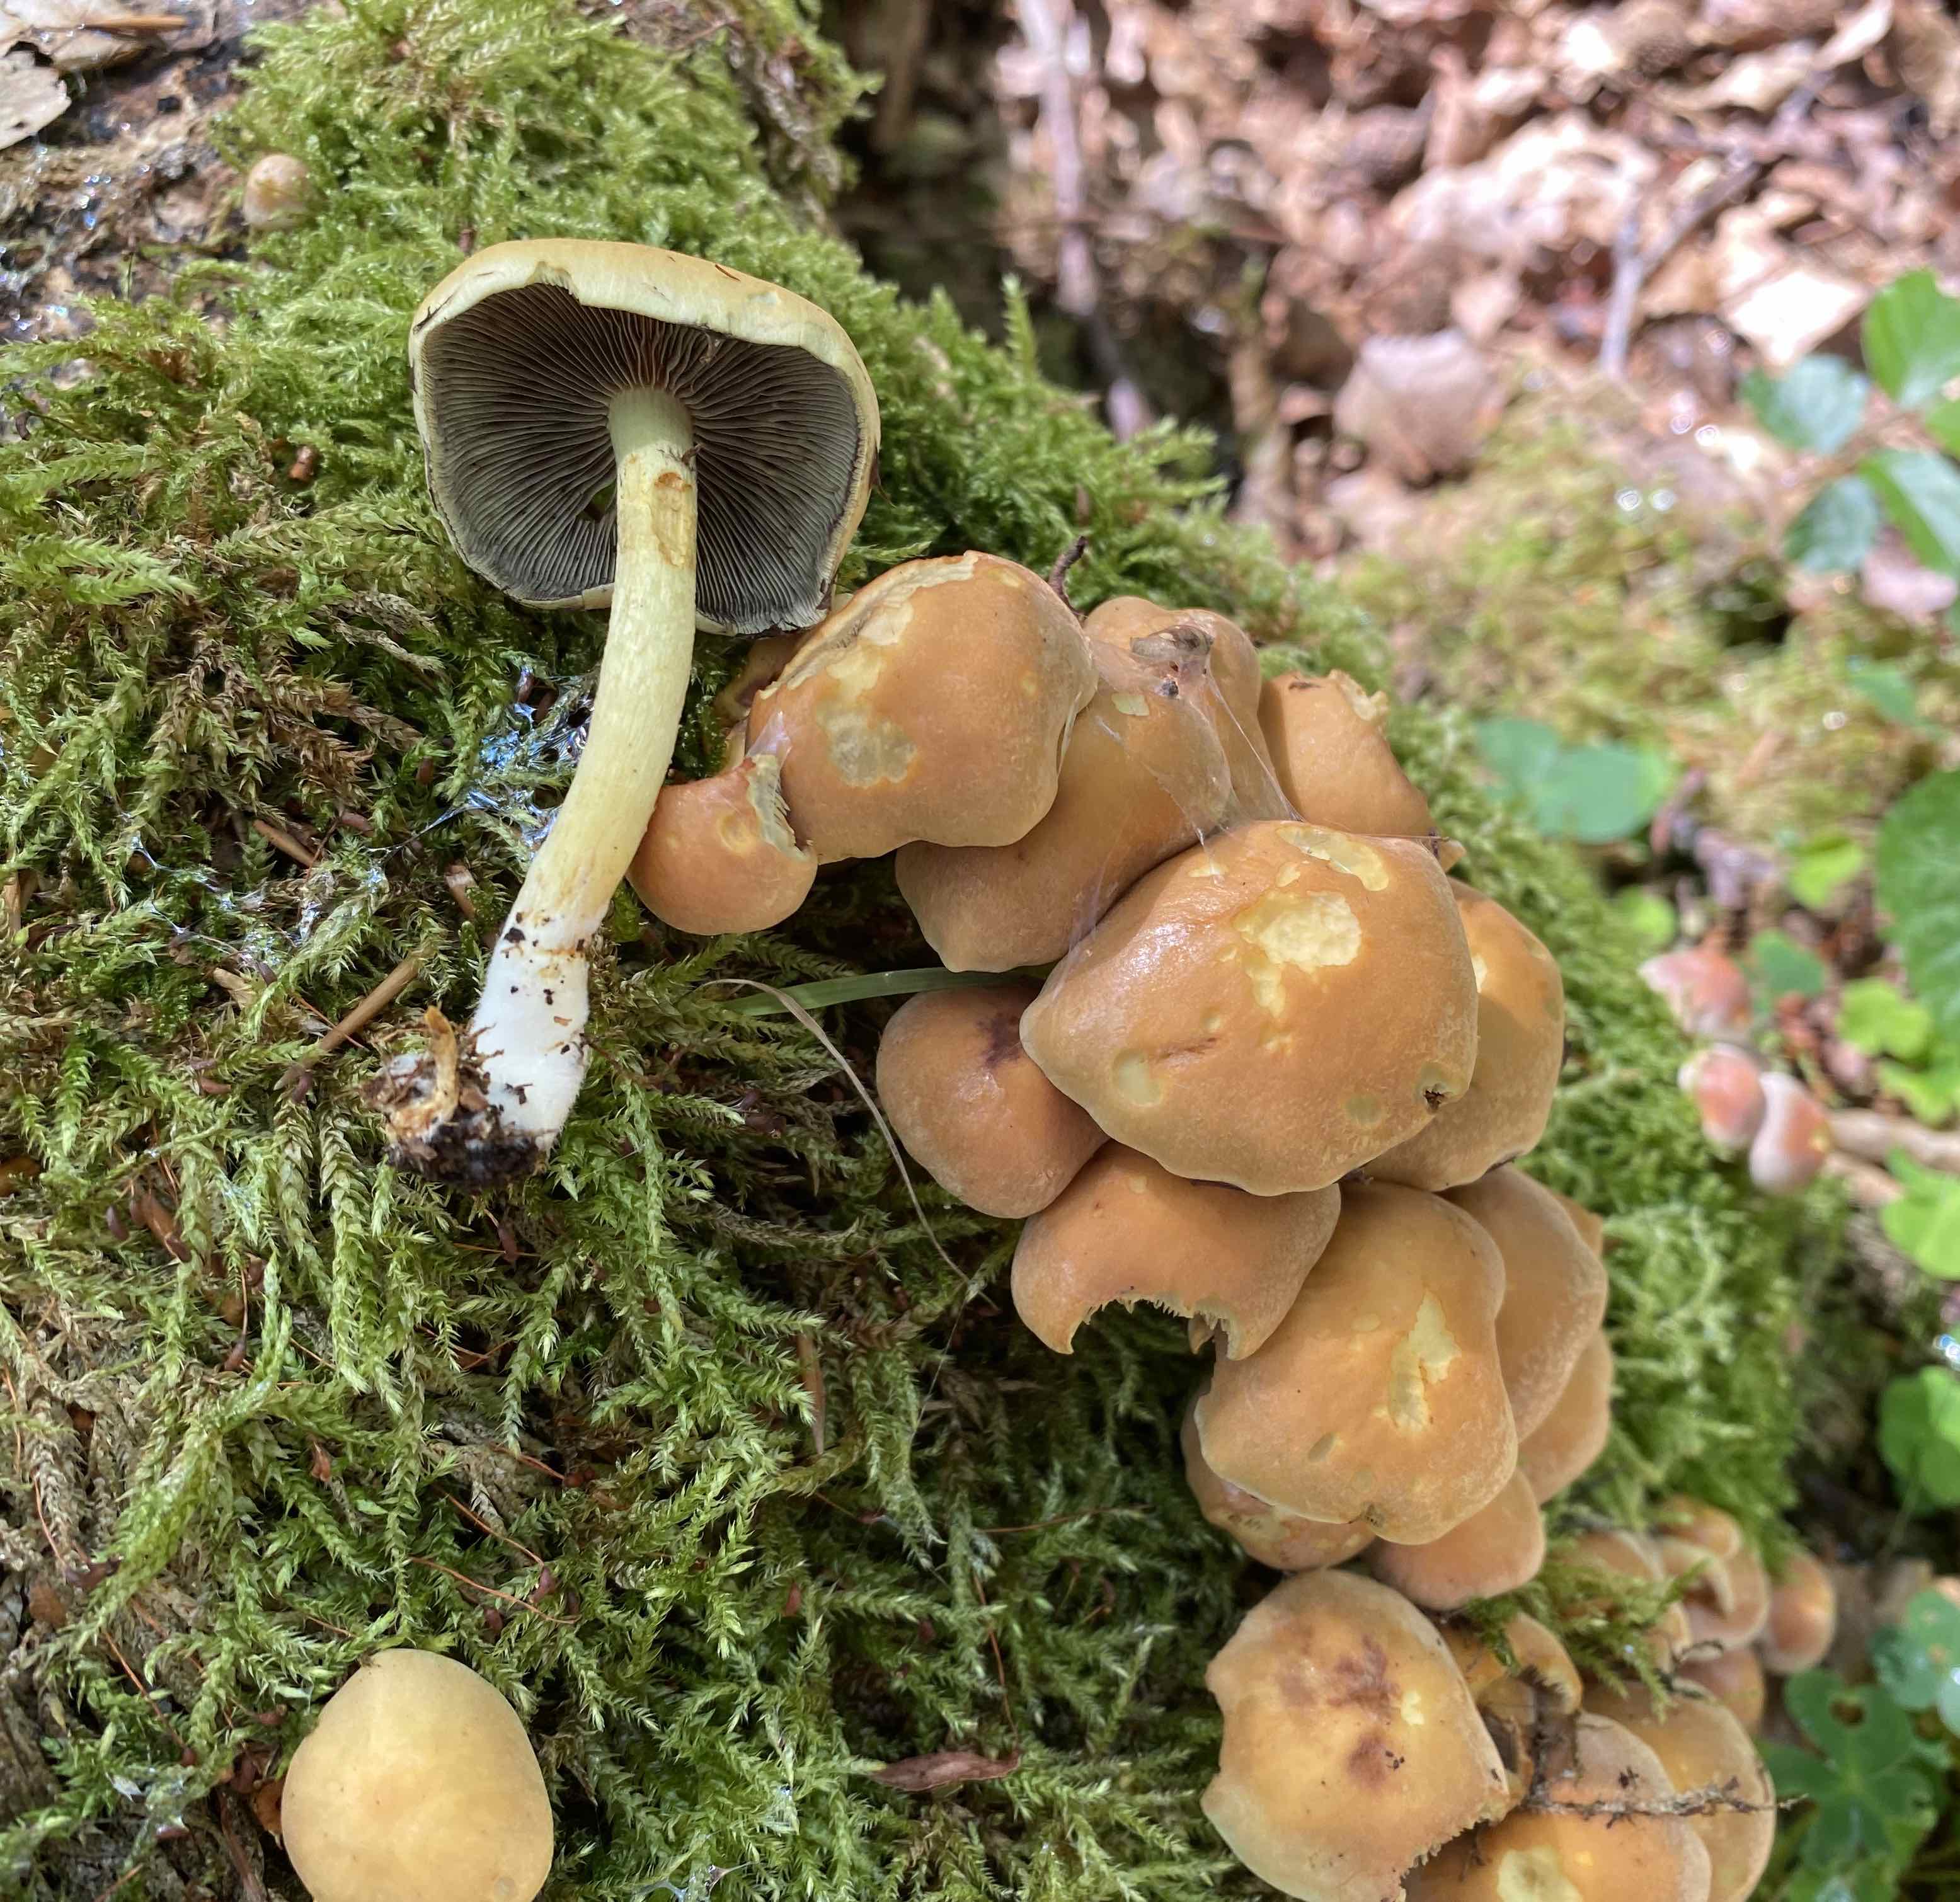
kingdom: Fungi
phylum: Basidiomycota
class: Agaricomycetes
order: Agaricales
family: Strophariaceae
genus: Hypholoma
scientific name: Hypholoma fasciculare
